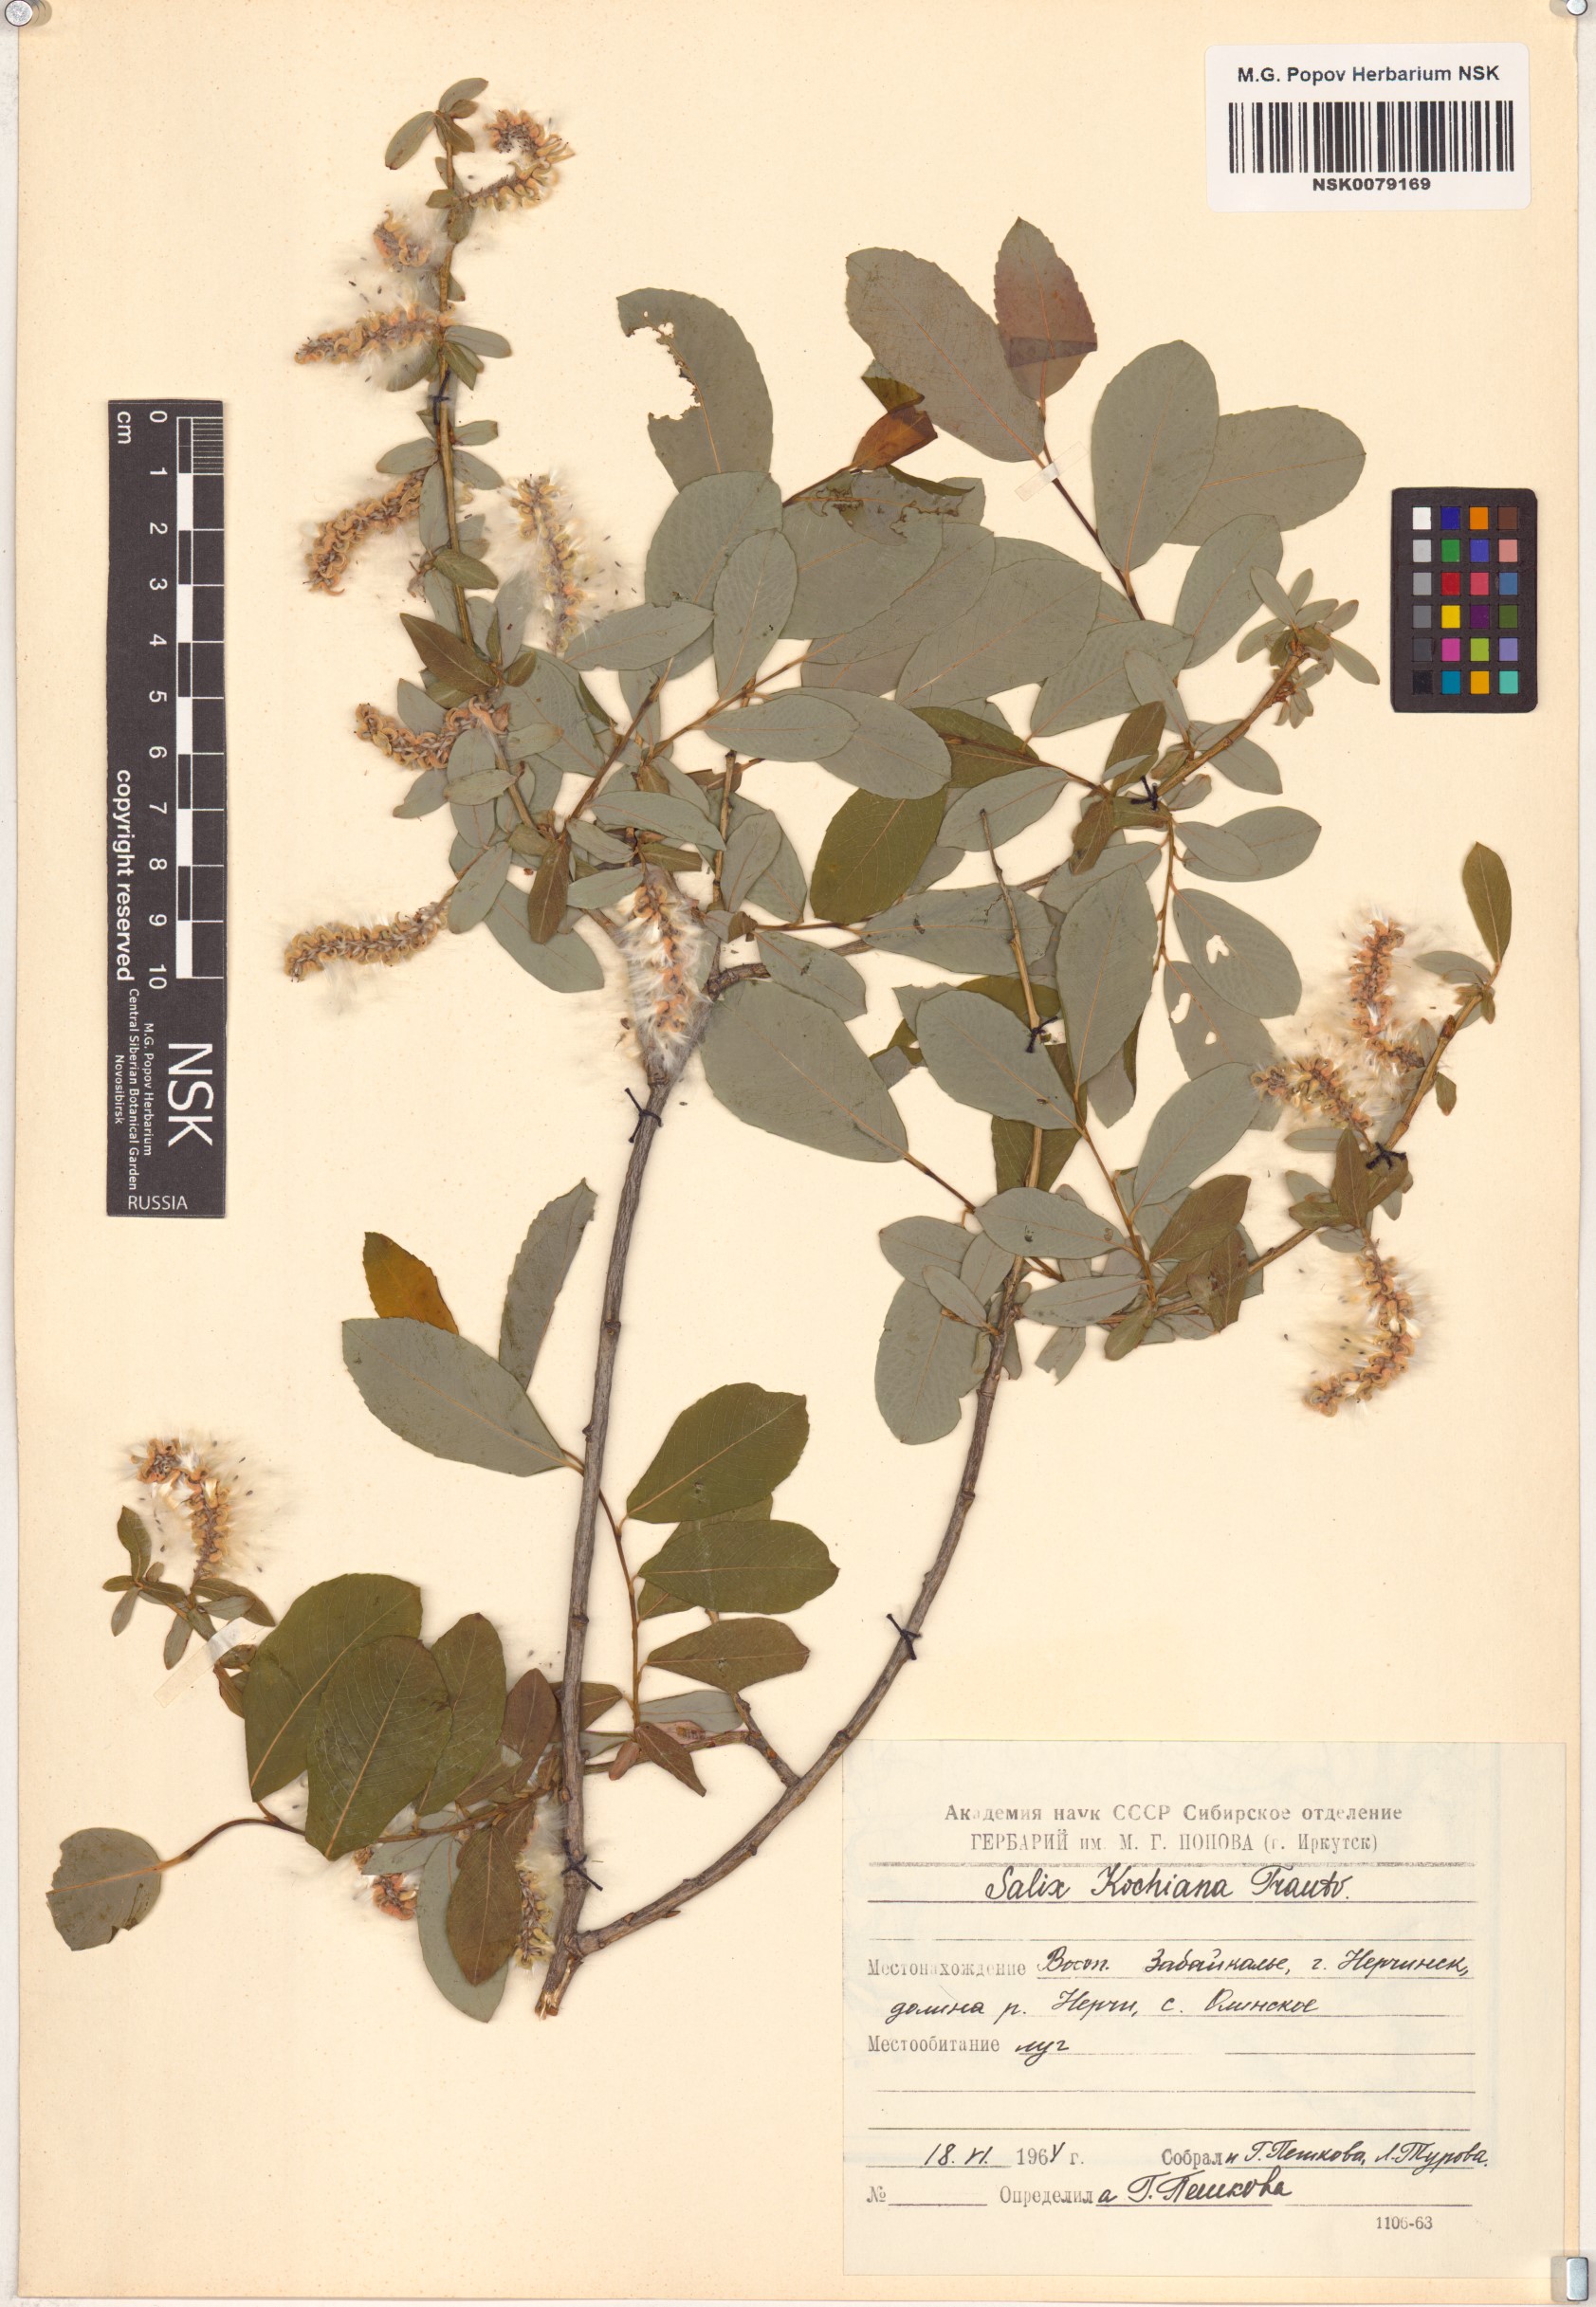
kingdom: Plantae
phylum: Tracheophyta
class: Magnoliopsida
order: Malpighiales
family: Salicaceae
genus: Salix
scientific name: Salix kochiana
